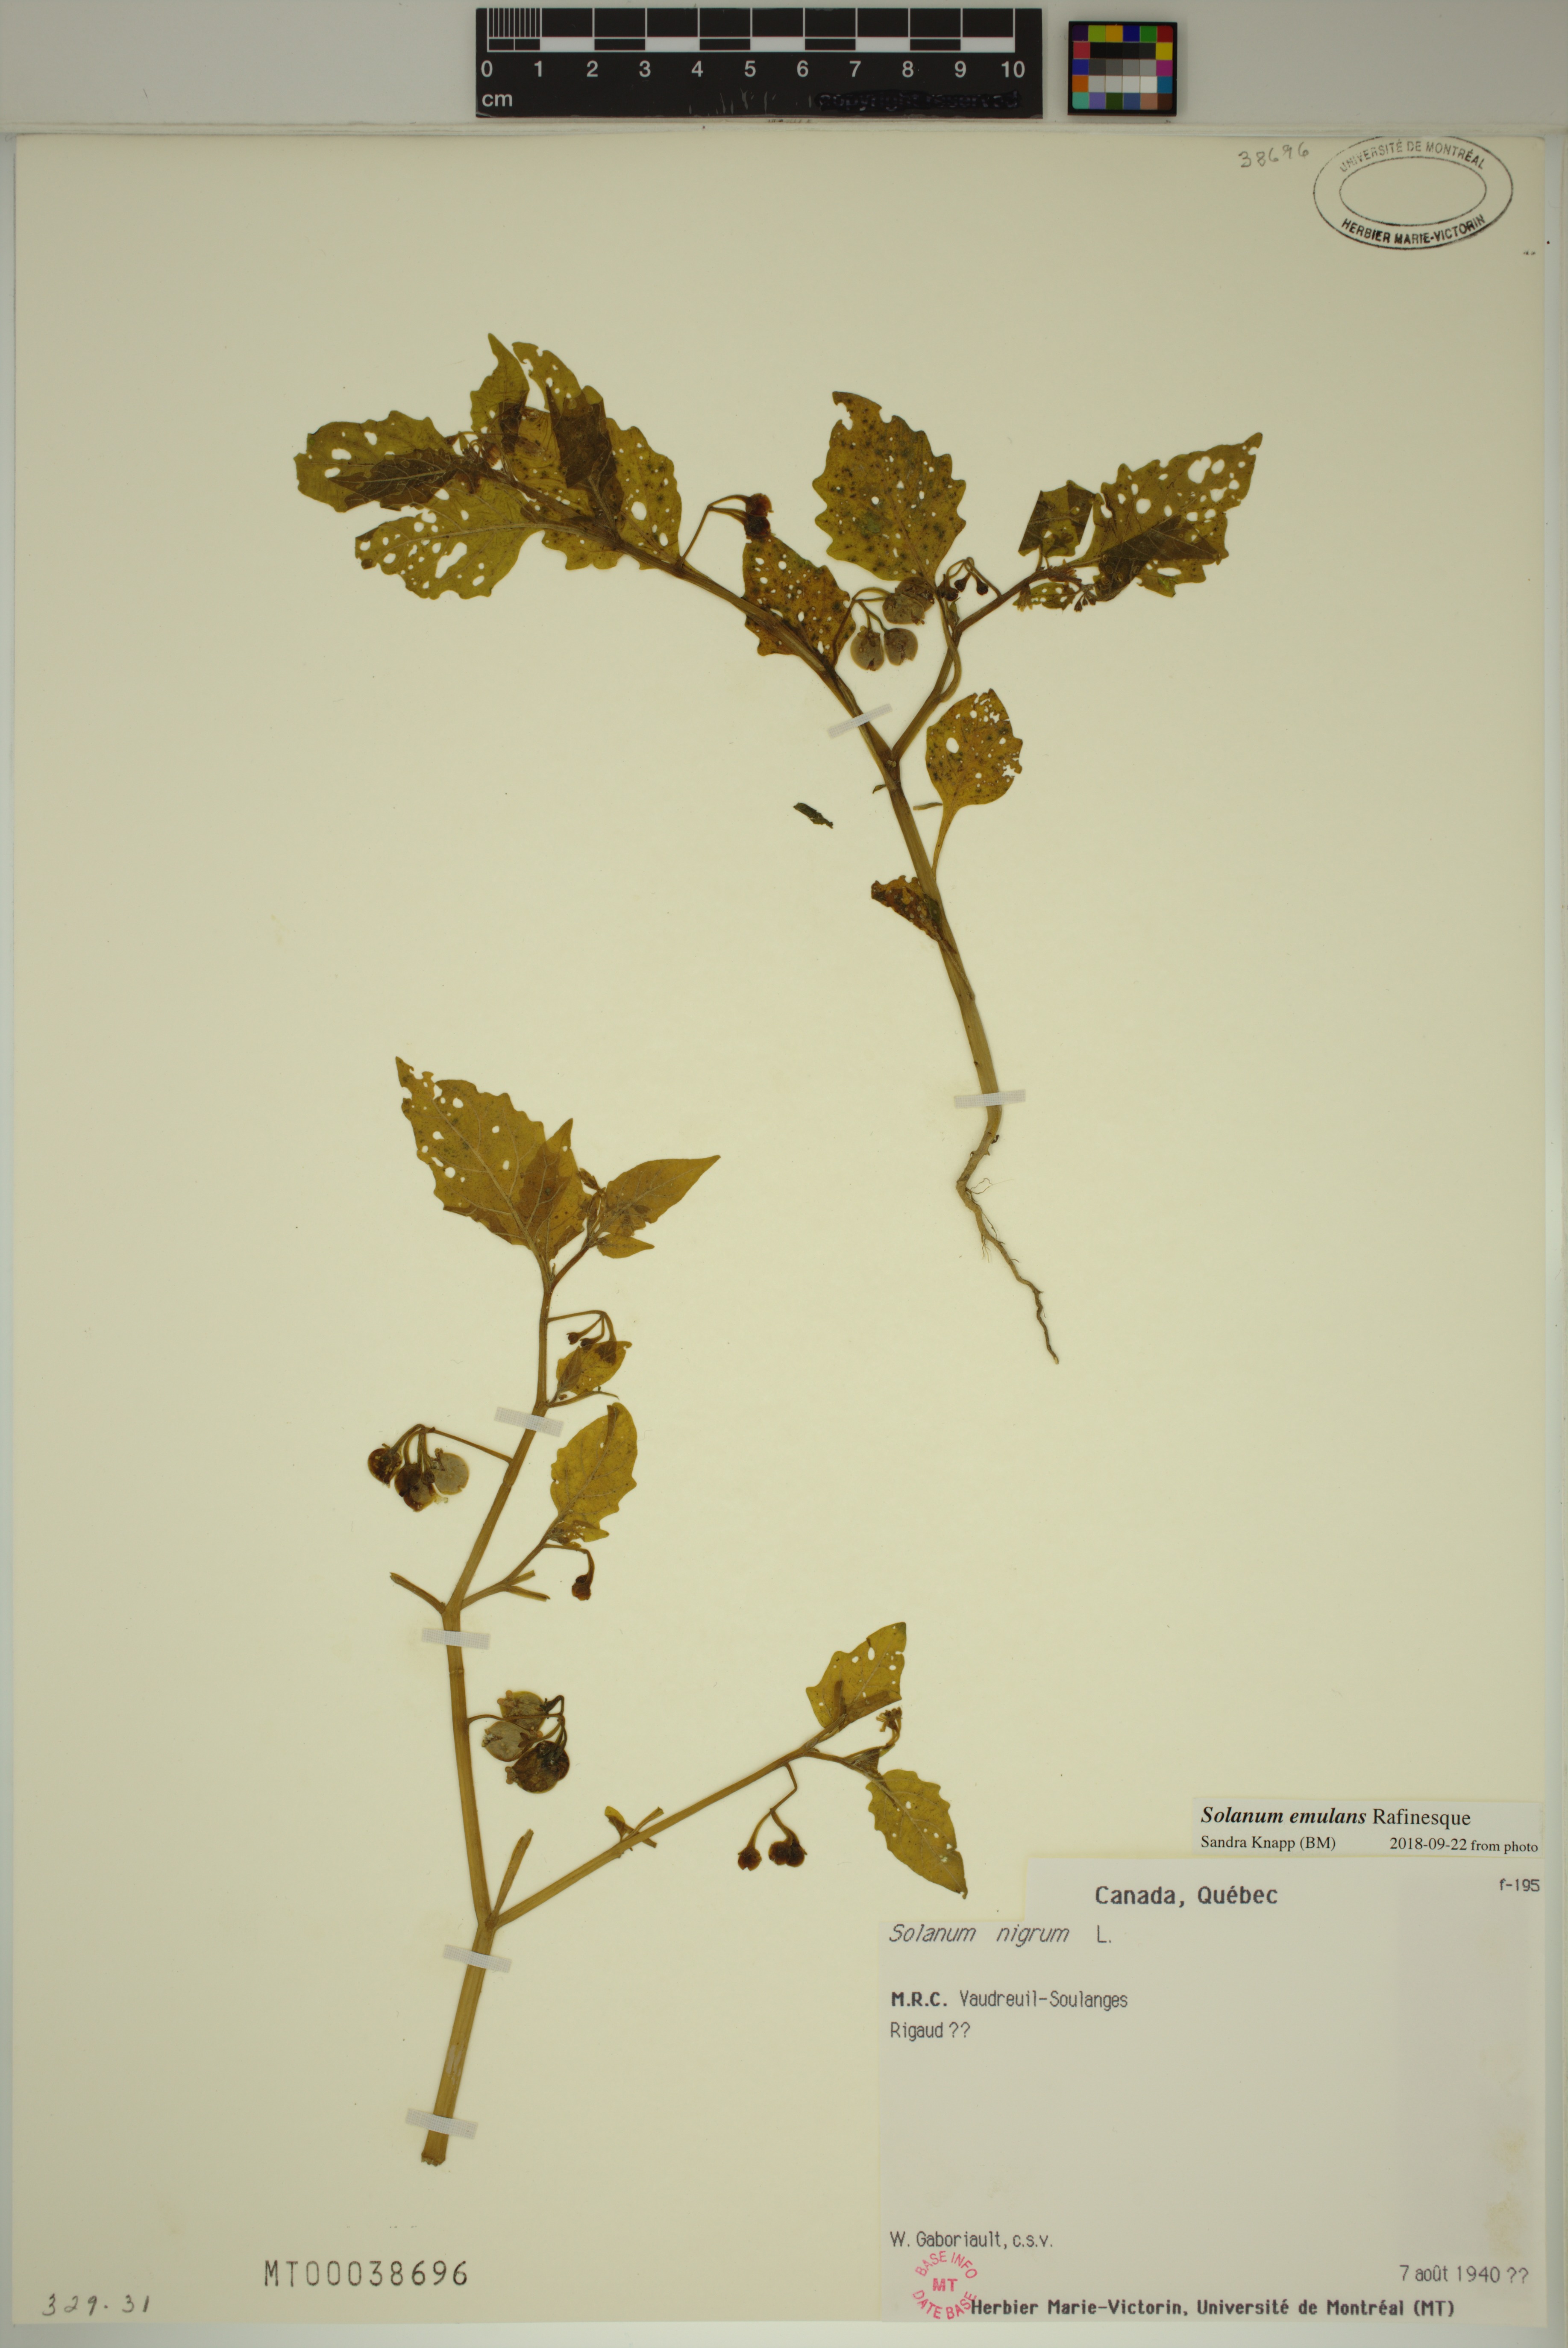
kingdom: Plantae
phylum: Tracheophyta
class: Magnoliopsida
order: Solanales
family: Solanaceae
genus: Solanum
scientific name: Solanum emulans
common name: Eastern black nightshade
